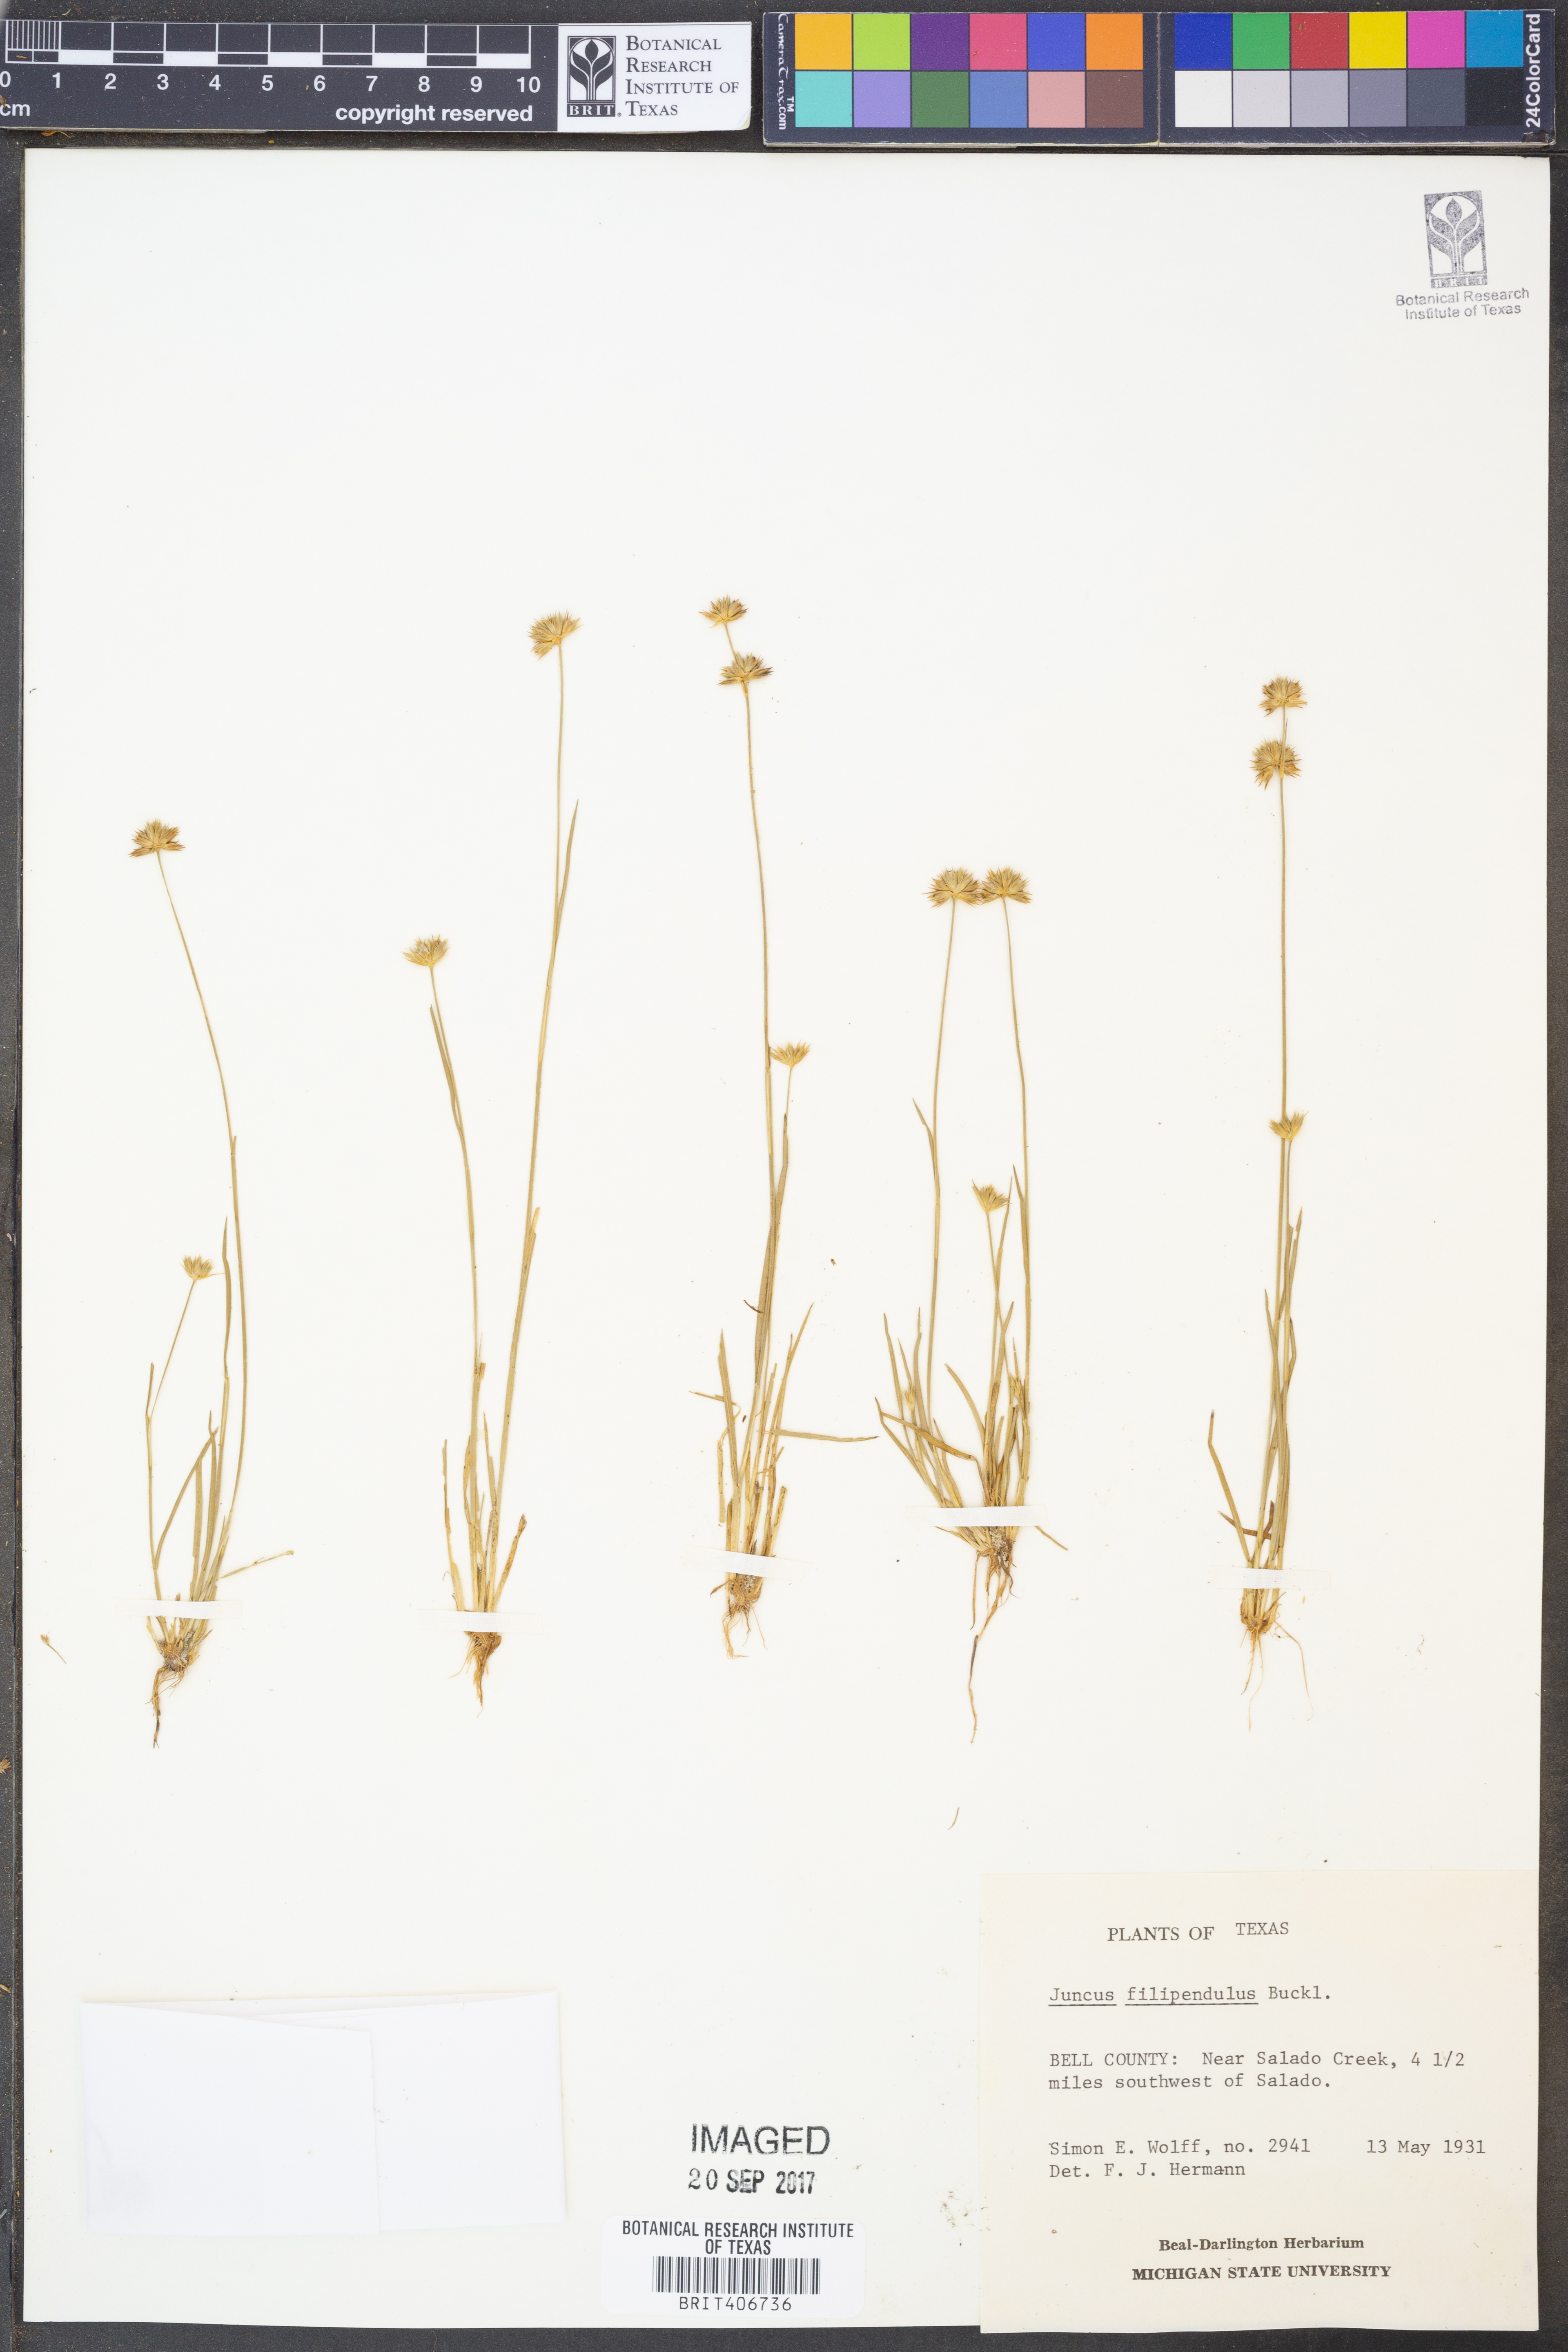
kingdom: Plantae
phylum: Tracheophyta
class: Liliopsida
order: Poales
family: Juncaceae
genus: Juncus
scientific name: Juncus filipendulus
